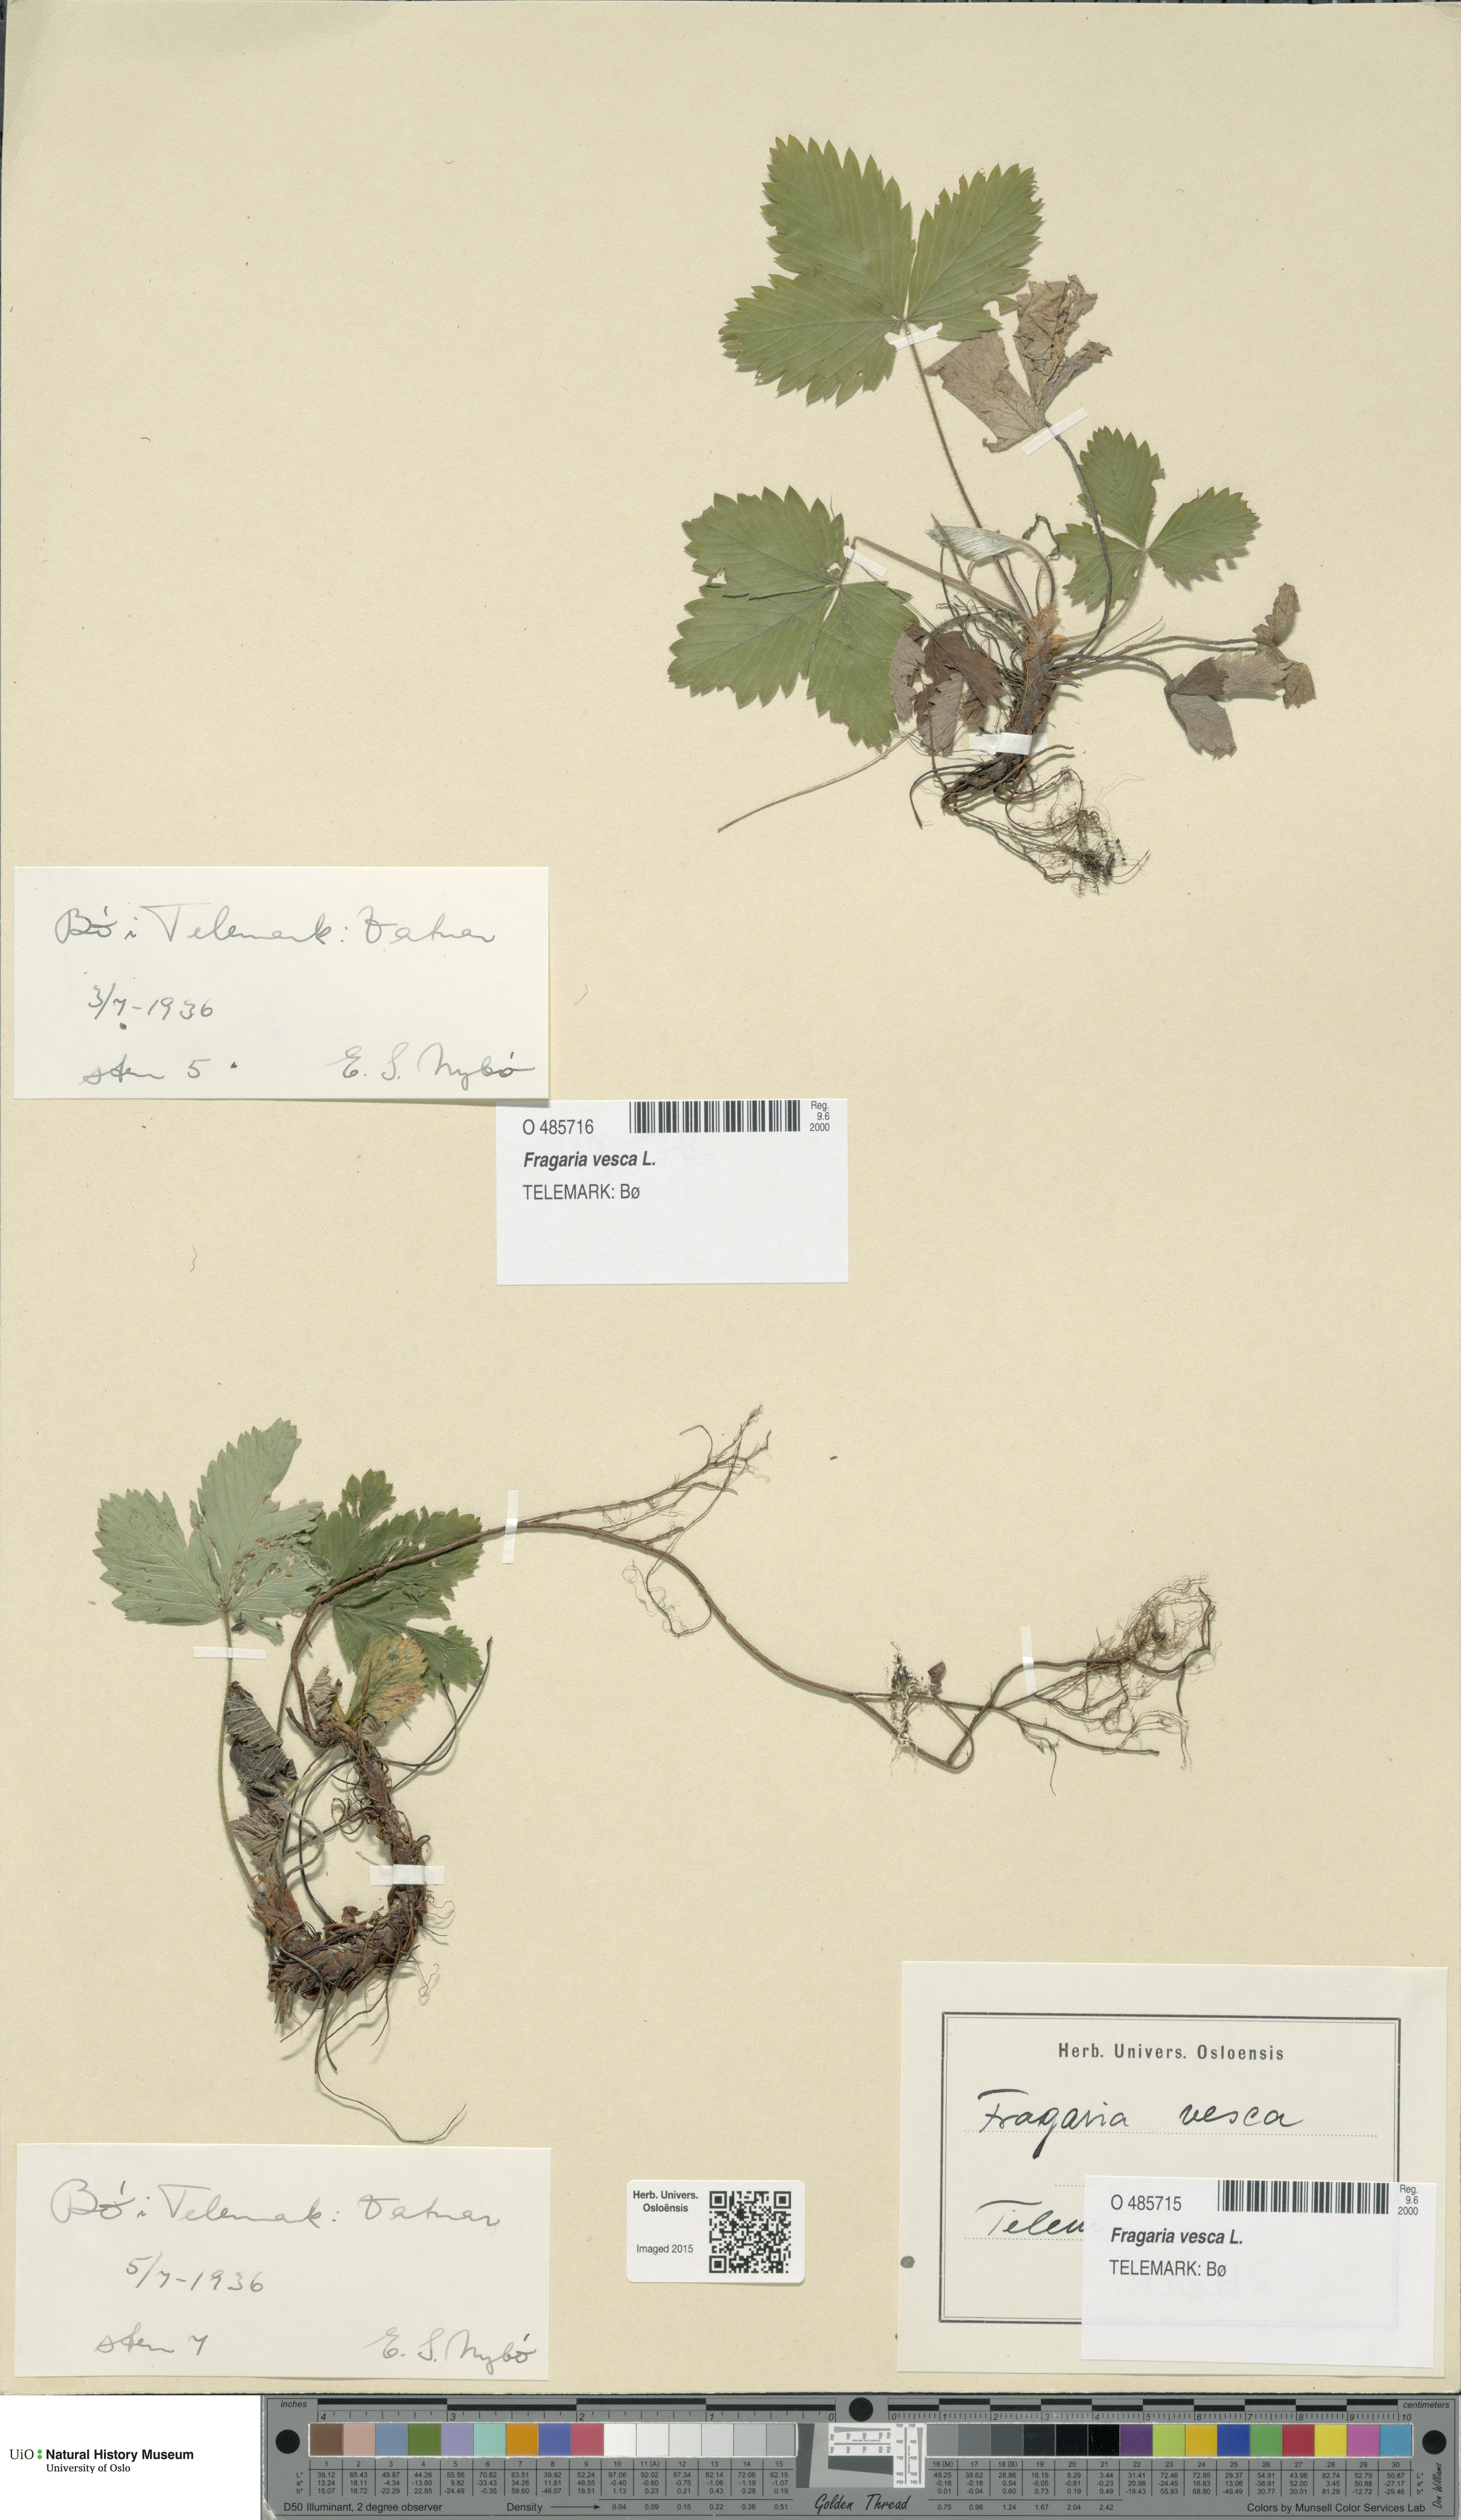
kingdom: Plantae
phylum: Tracheophyta
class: Magnoliopsida
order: Rosales
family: Rosaceae
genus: Fragaria
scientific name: Fragaria vesca
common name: Wild strawberry
